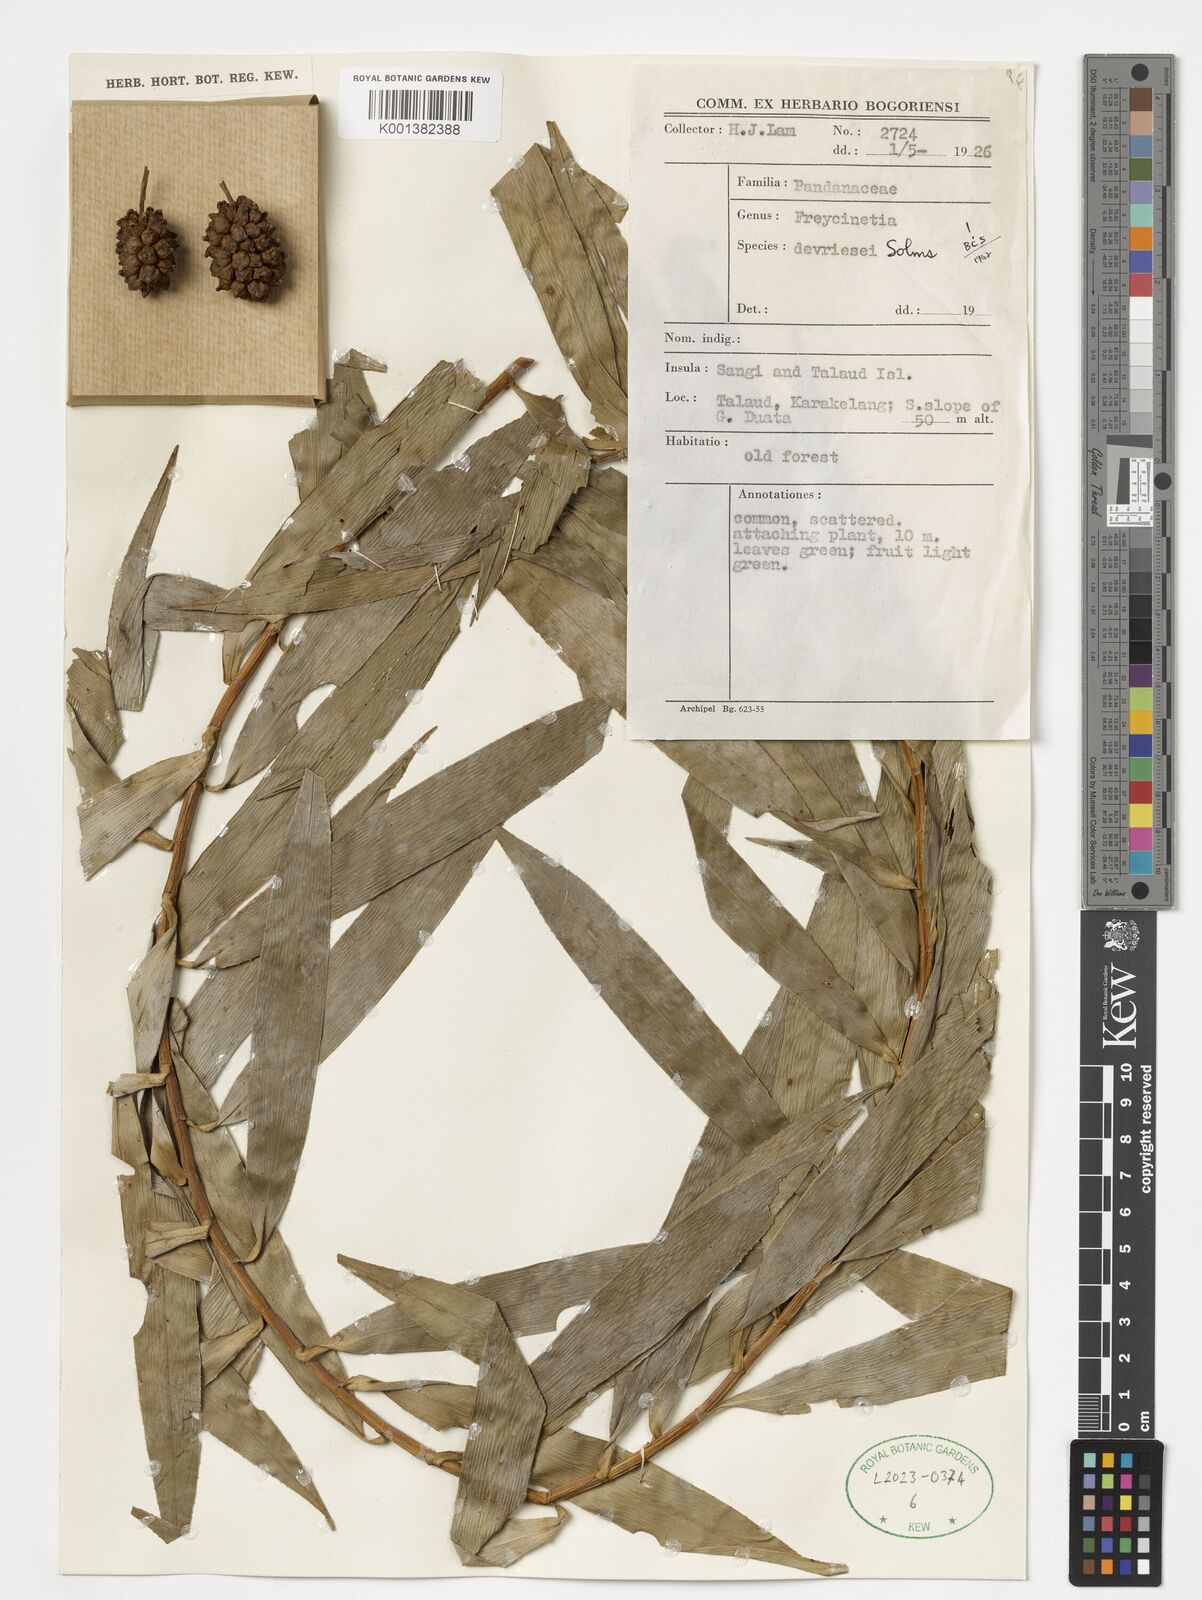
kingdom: Plantae
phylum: Tracheophyta
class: Liliopsida
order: Pandanales
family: Pandanaceae
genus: Freycinetia
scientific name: Freycinetia devriesei
